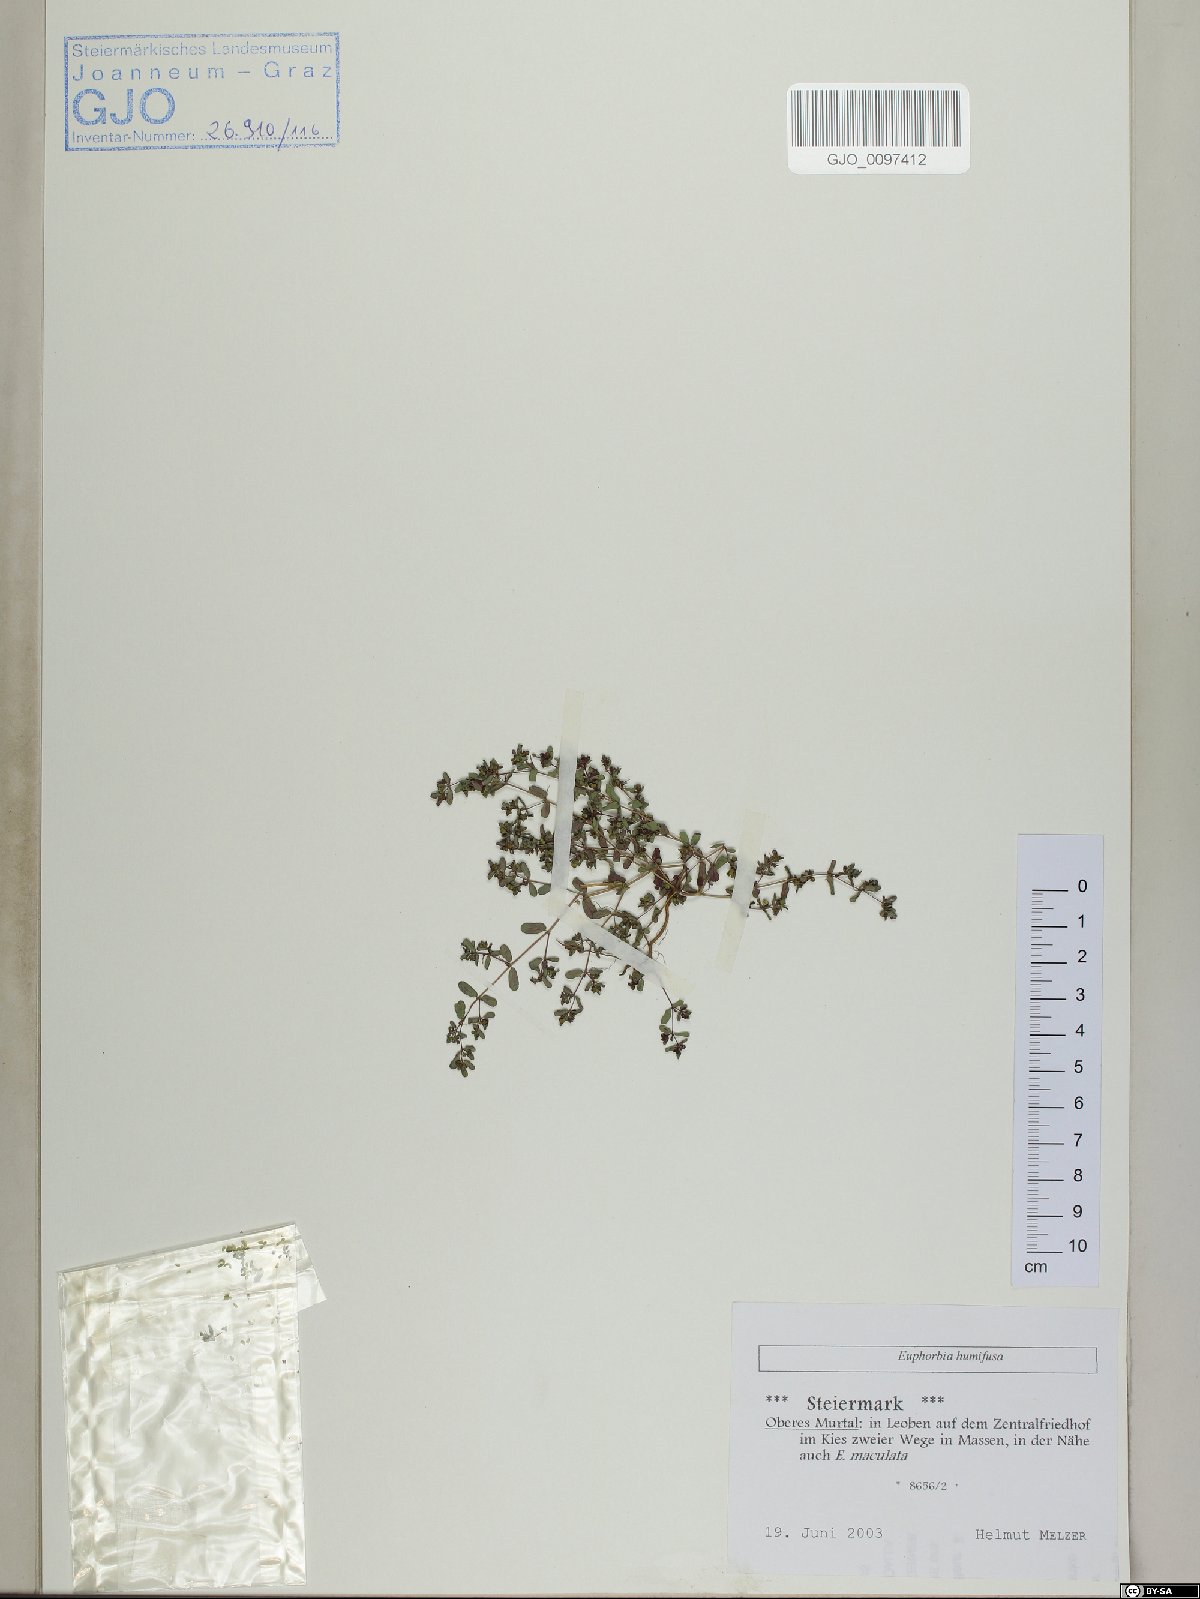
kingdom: Plantae
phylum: Tracheophyta
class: Magnoliopsida
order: Malpighiales
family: Euphorbiaceae
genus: Euphorbia
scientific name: Euphorbia humifusa
